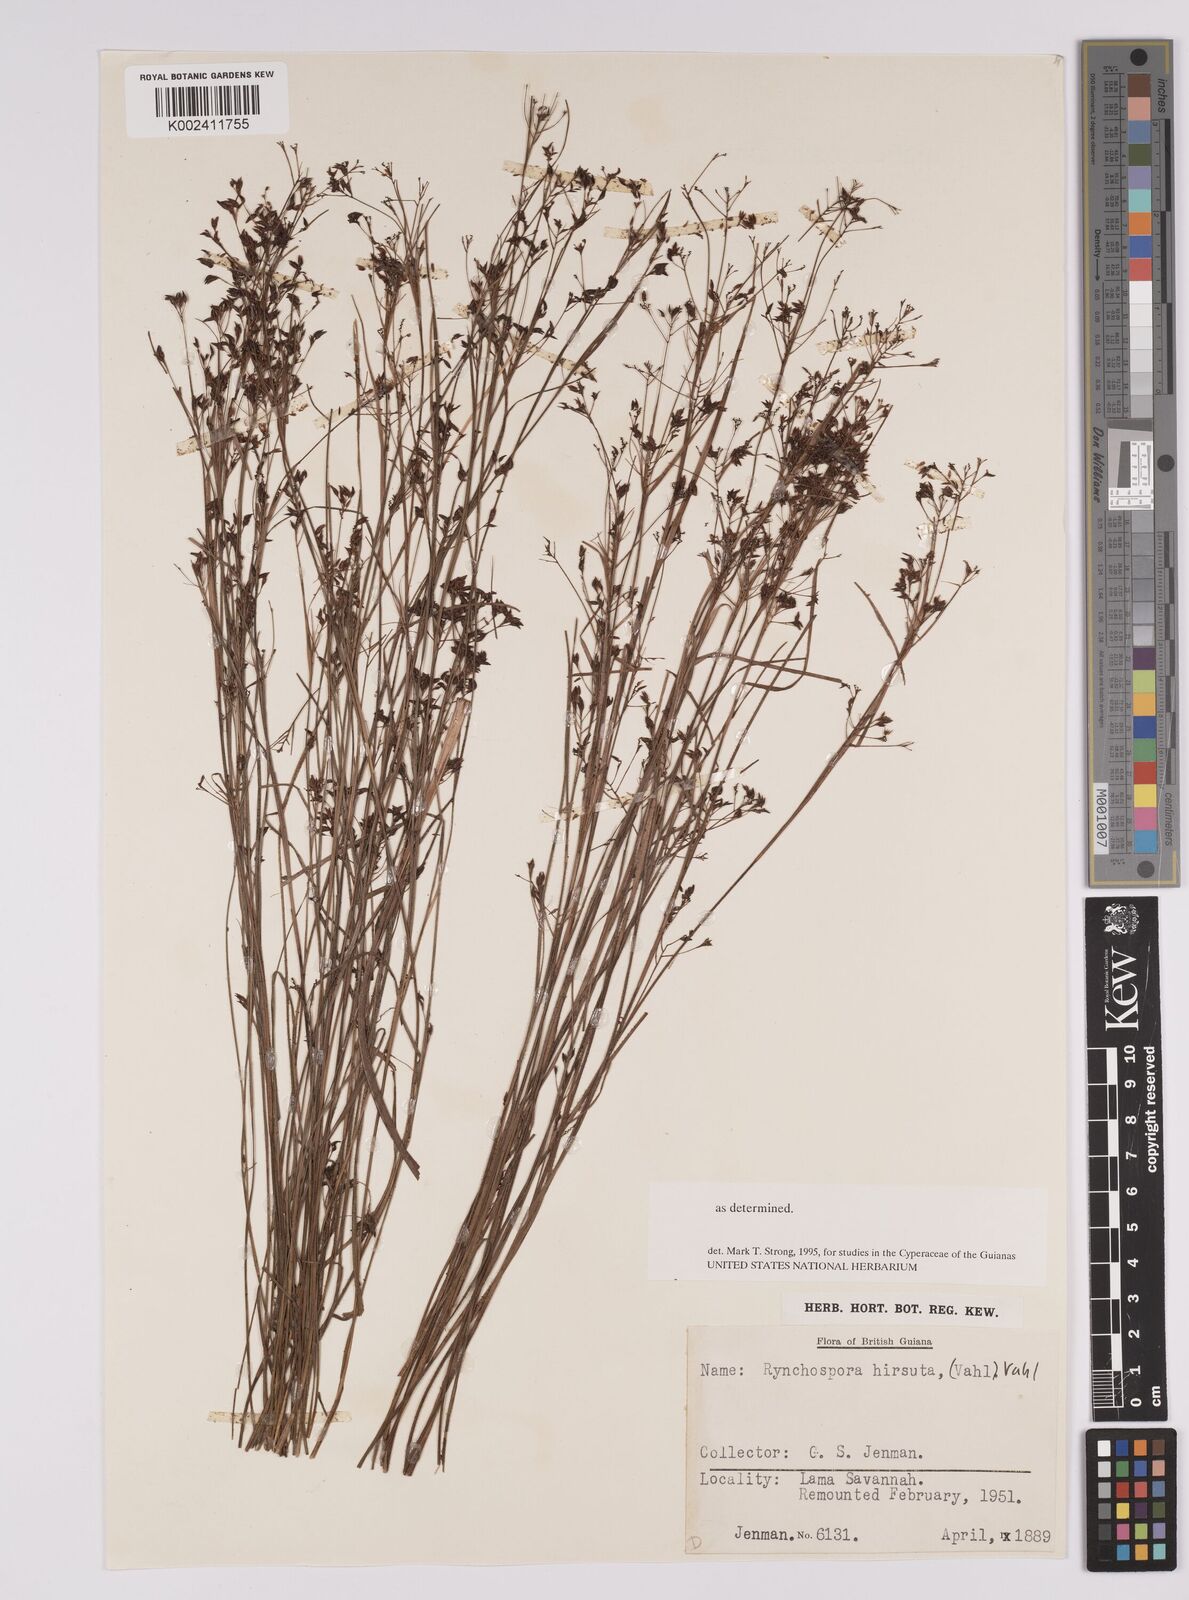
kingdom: Plantae
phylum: Tracheophyta
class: Liliopsida
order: Poales
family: Cyperaceae
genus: Rhynchospora
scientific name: Rhynchospora hirsuta
